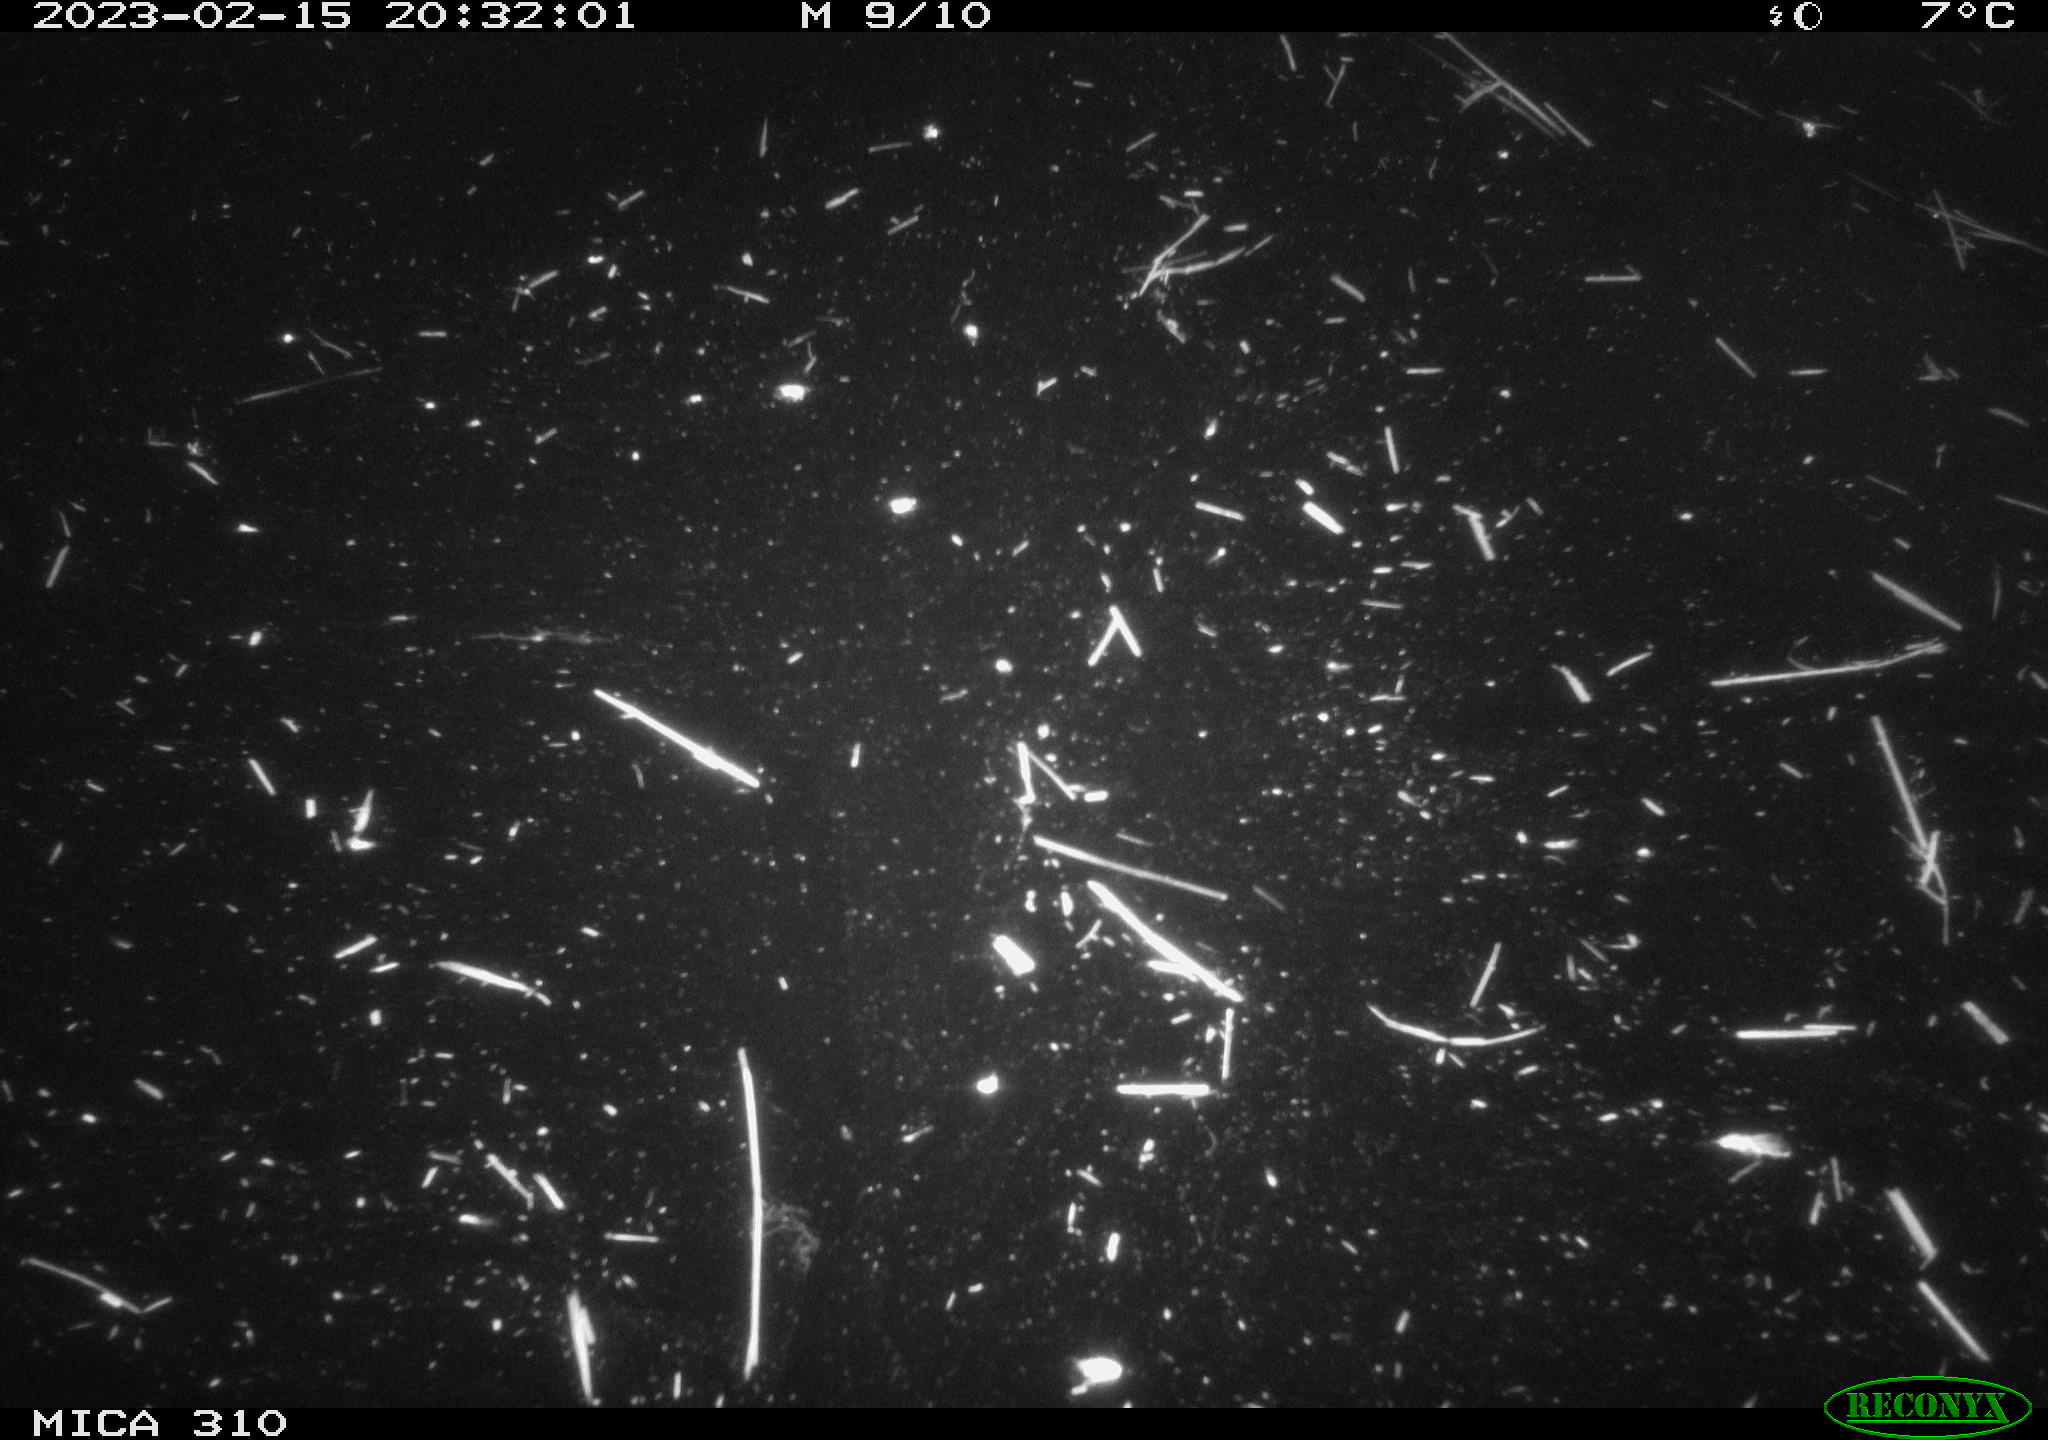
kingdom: Animalia
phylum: Chordata
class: Aves
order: Anseriformes
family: Anatidae
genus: Anas
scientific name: Anas
